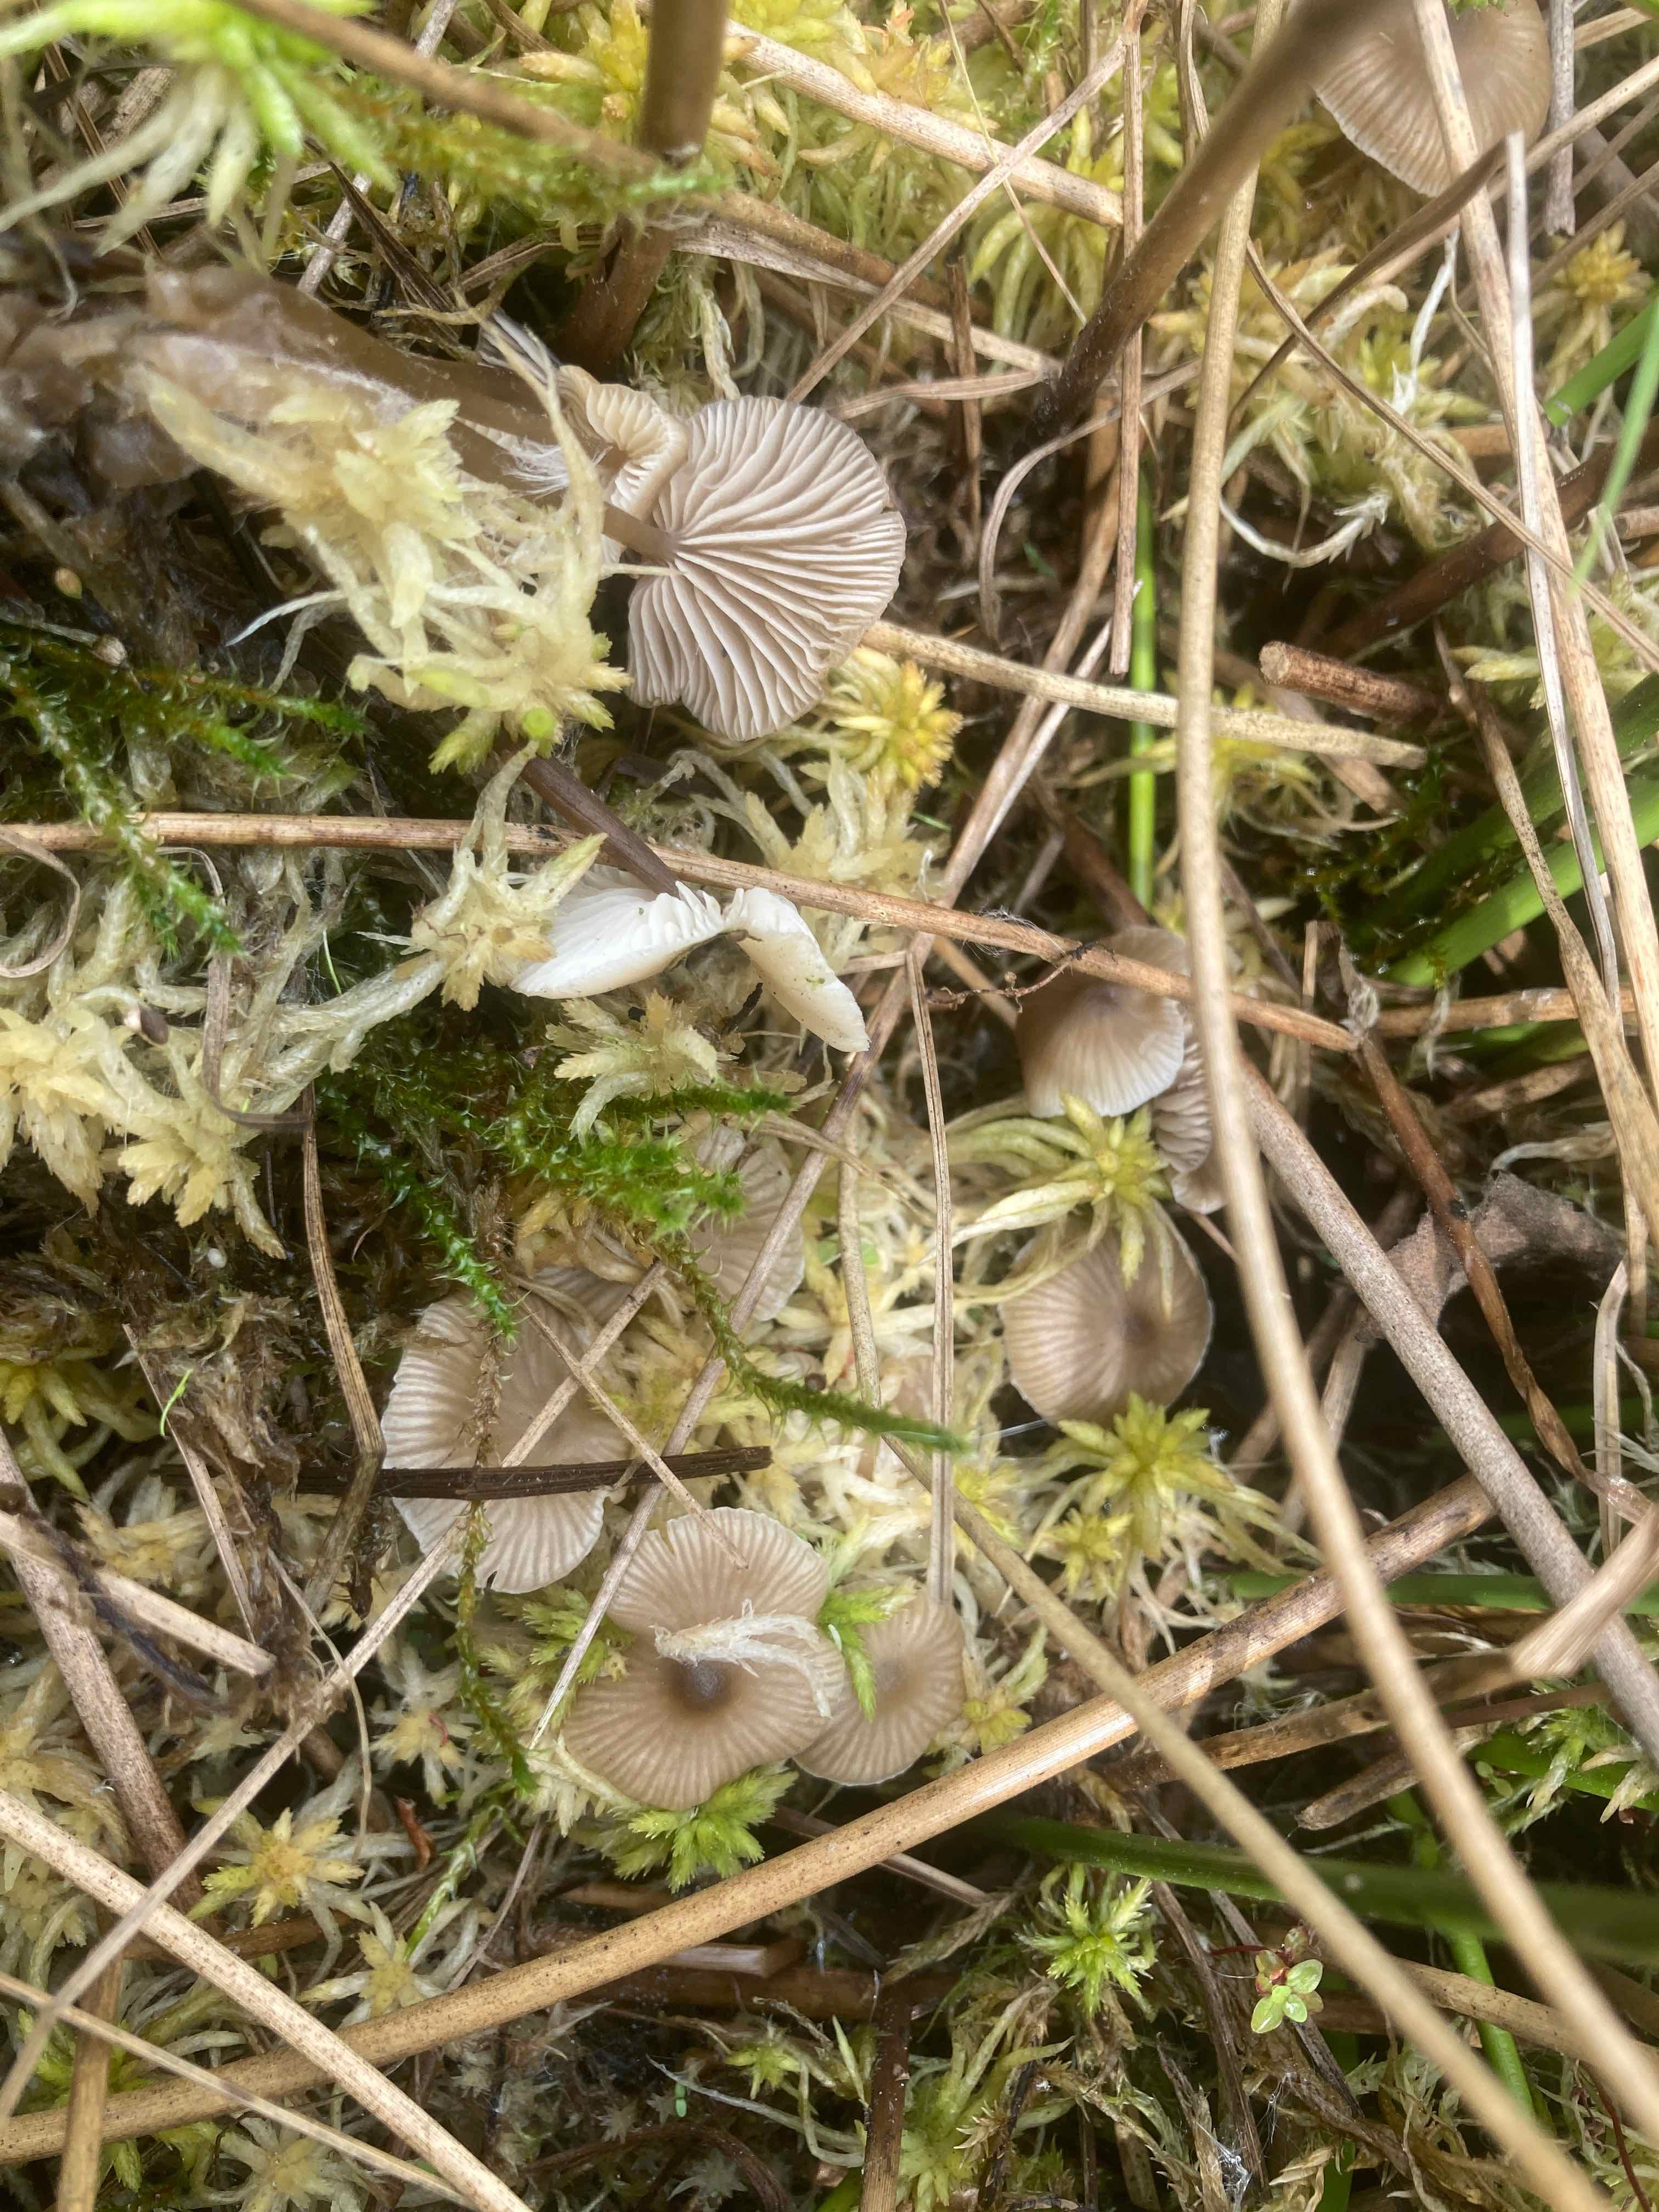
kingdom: Fungi
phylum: Basidiomycota
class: Agaricomycetes
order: Agaricales
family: Lyophyllaceae
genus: Sphagnurus
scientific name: Sphagnurus paluster
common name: tørvemos-gråblad
